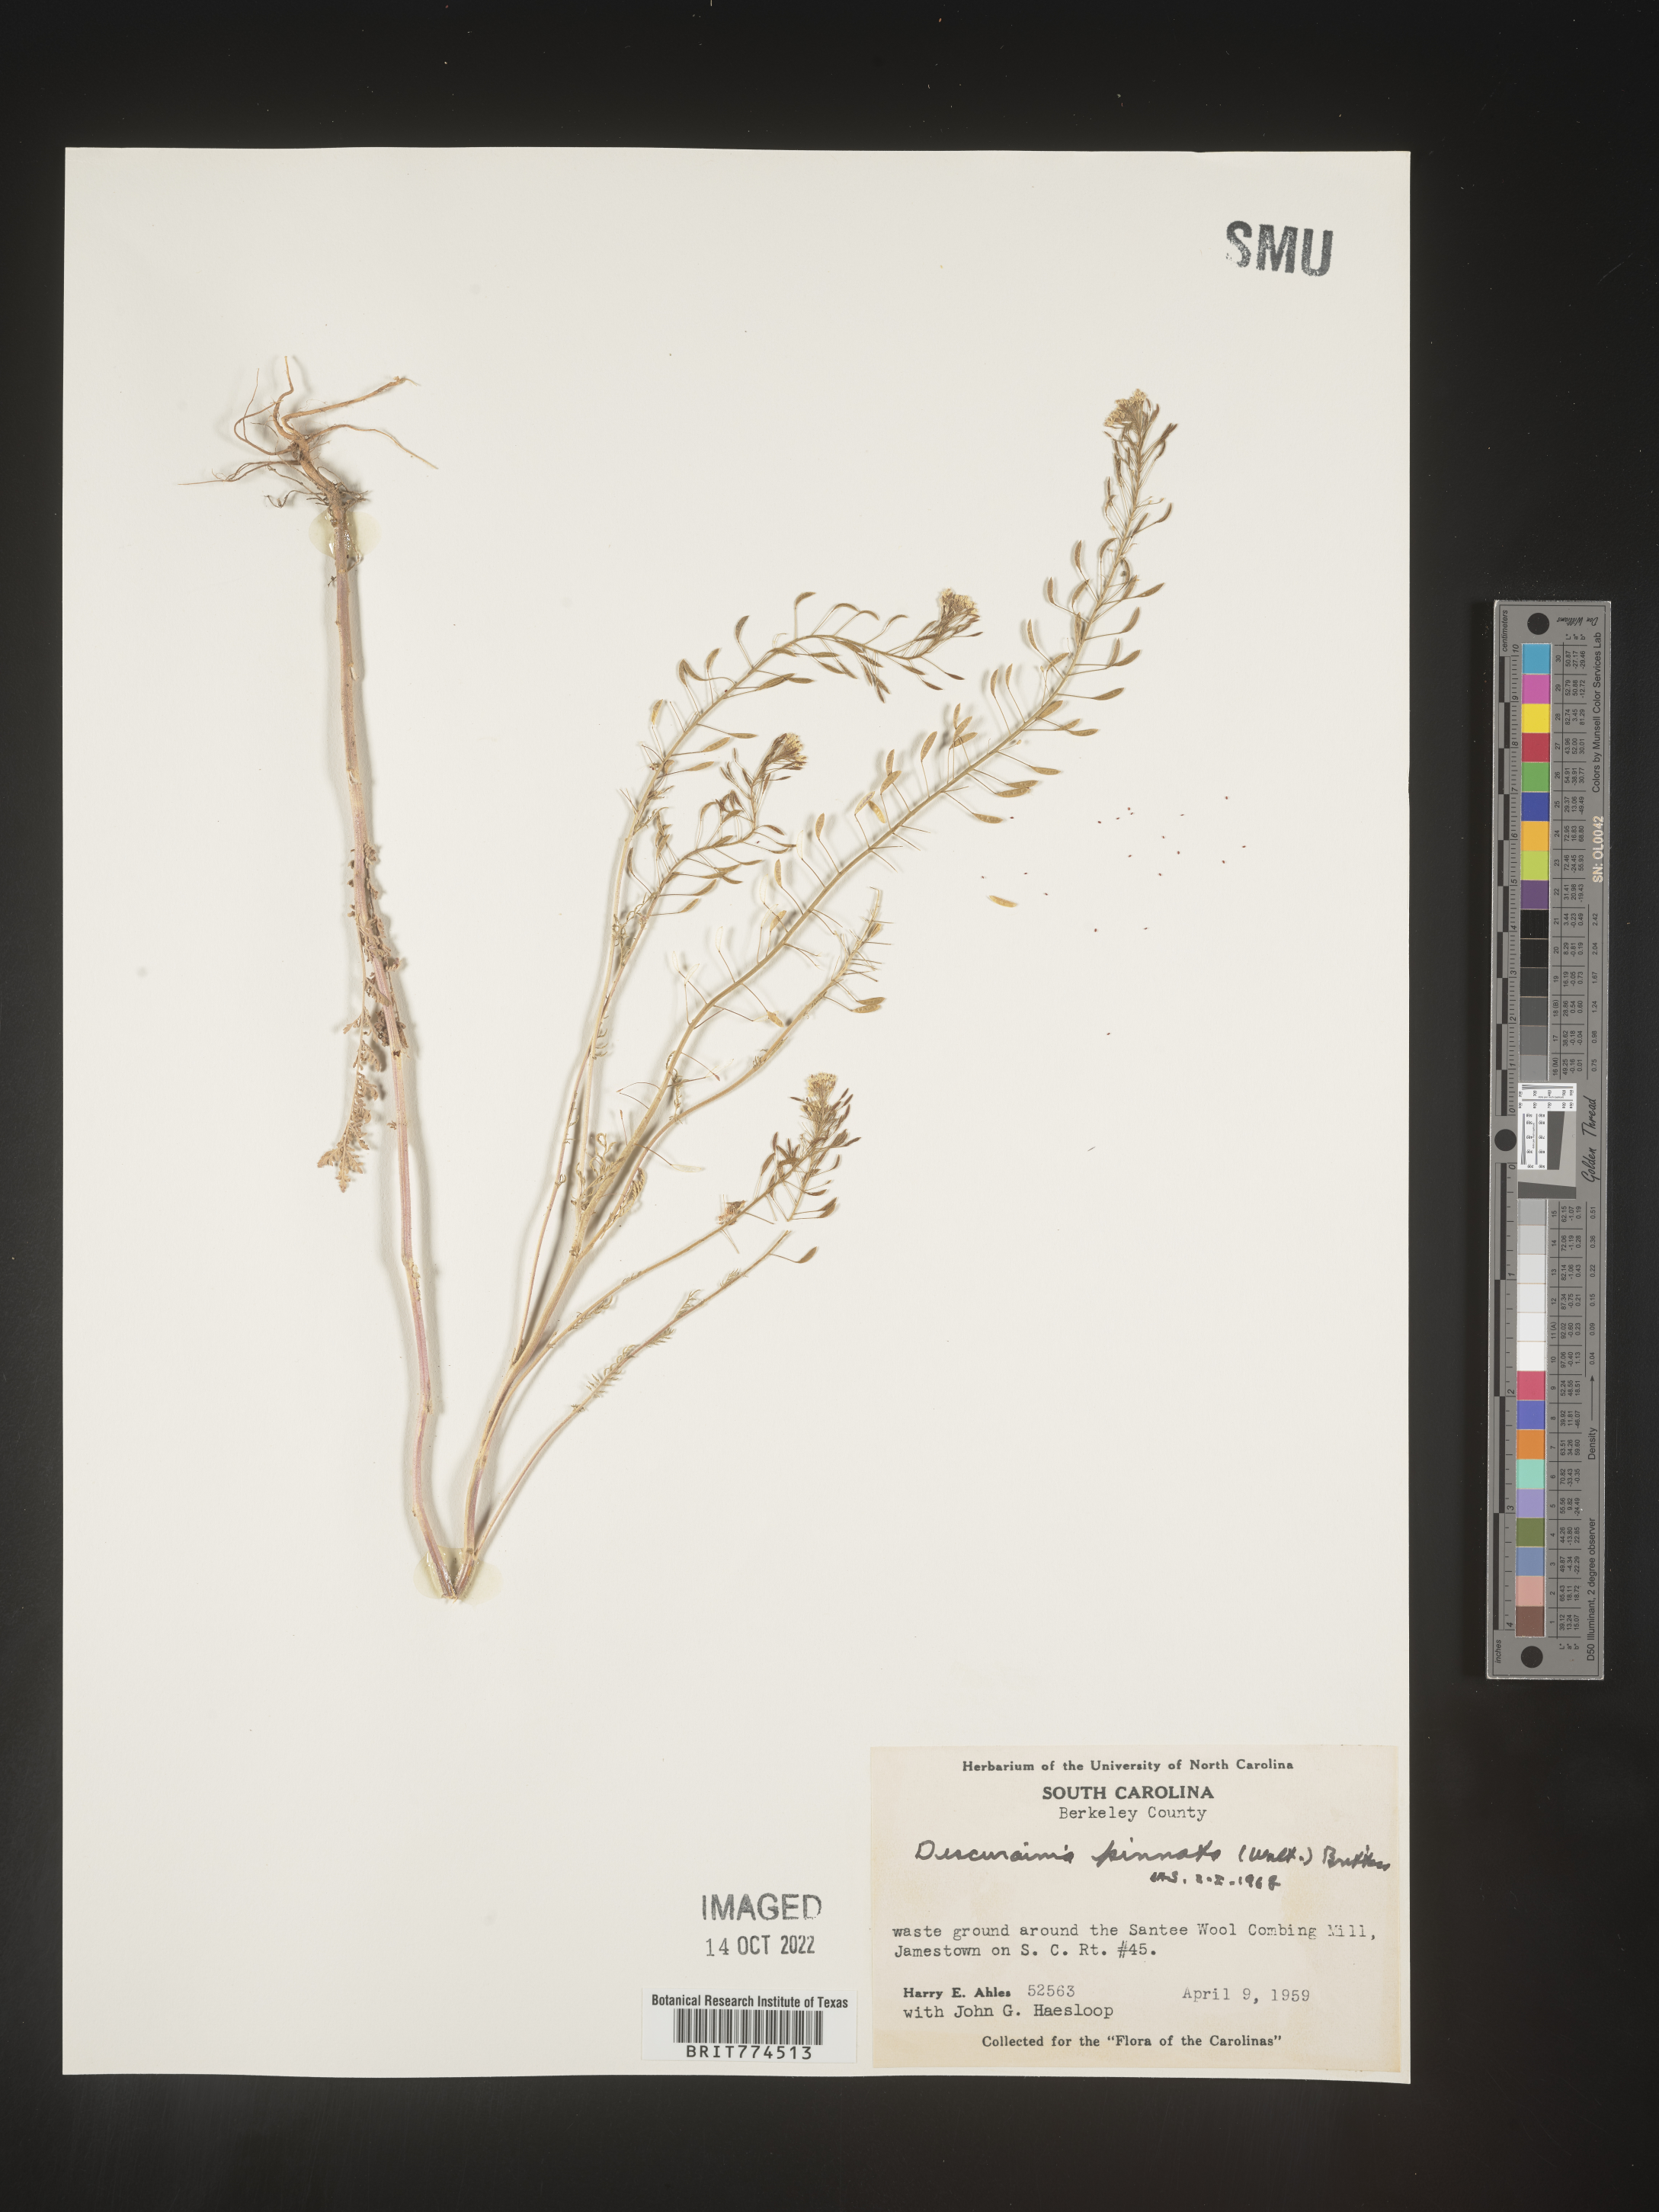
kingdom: Plantae
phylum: Tracheophyta
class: Magnoliopsida
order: Brassicales
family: Brassicaceae
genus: Descurainia
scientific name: Descurainia pinnata
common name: Western tansy mustard
